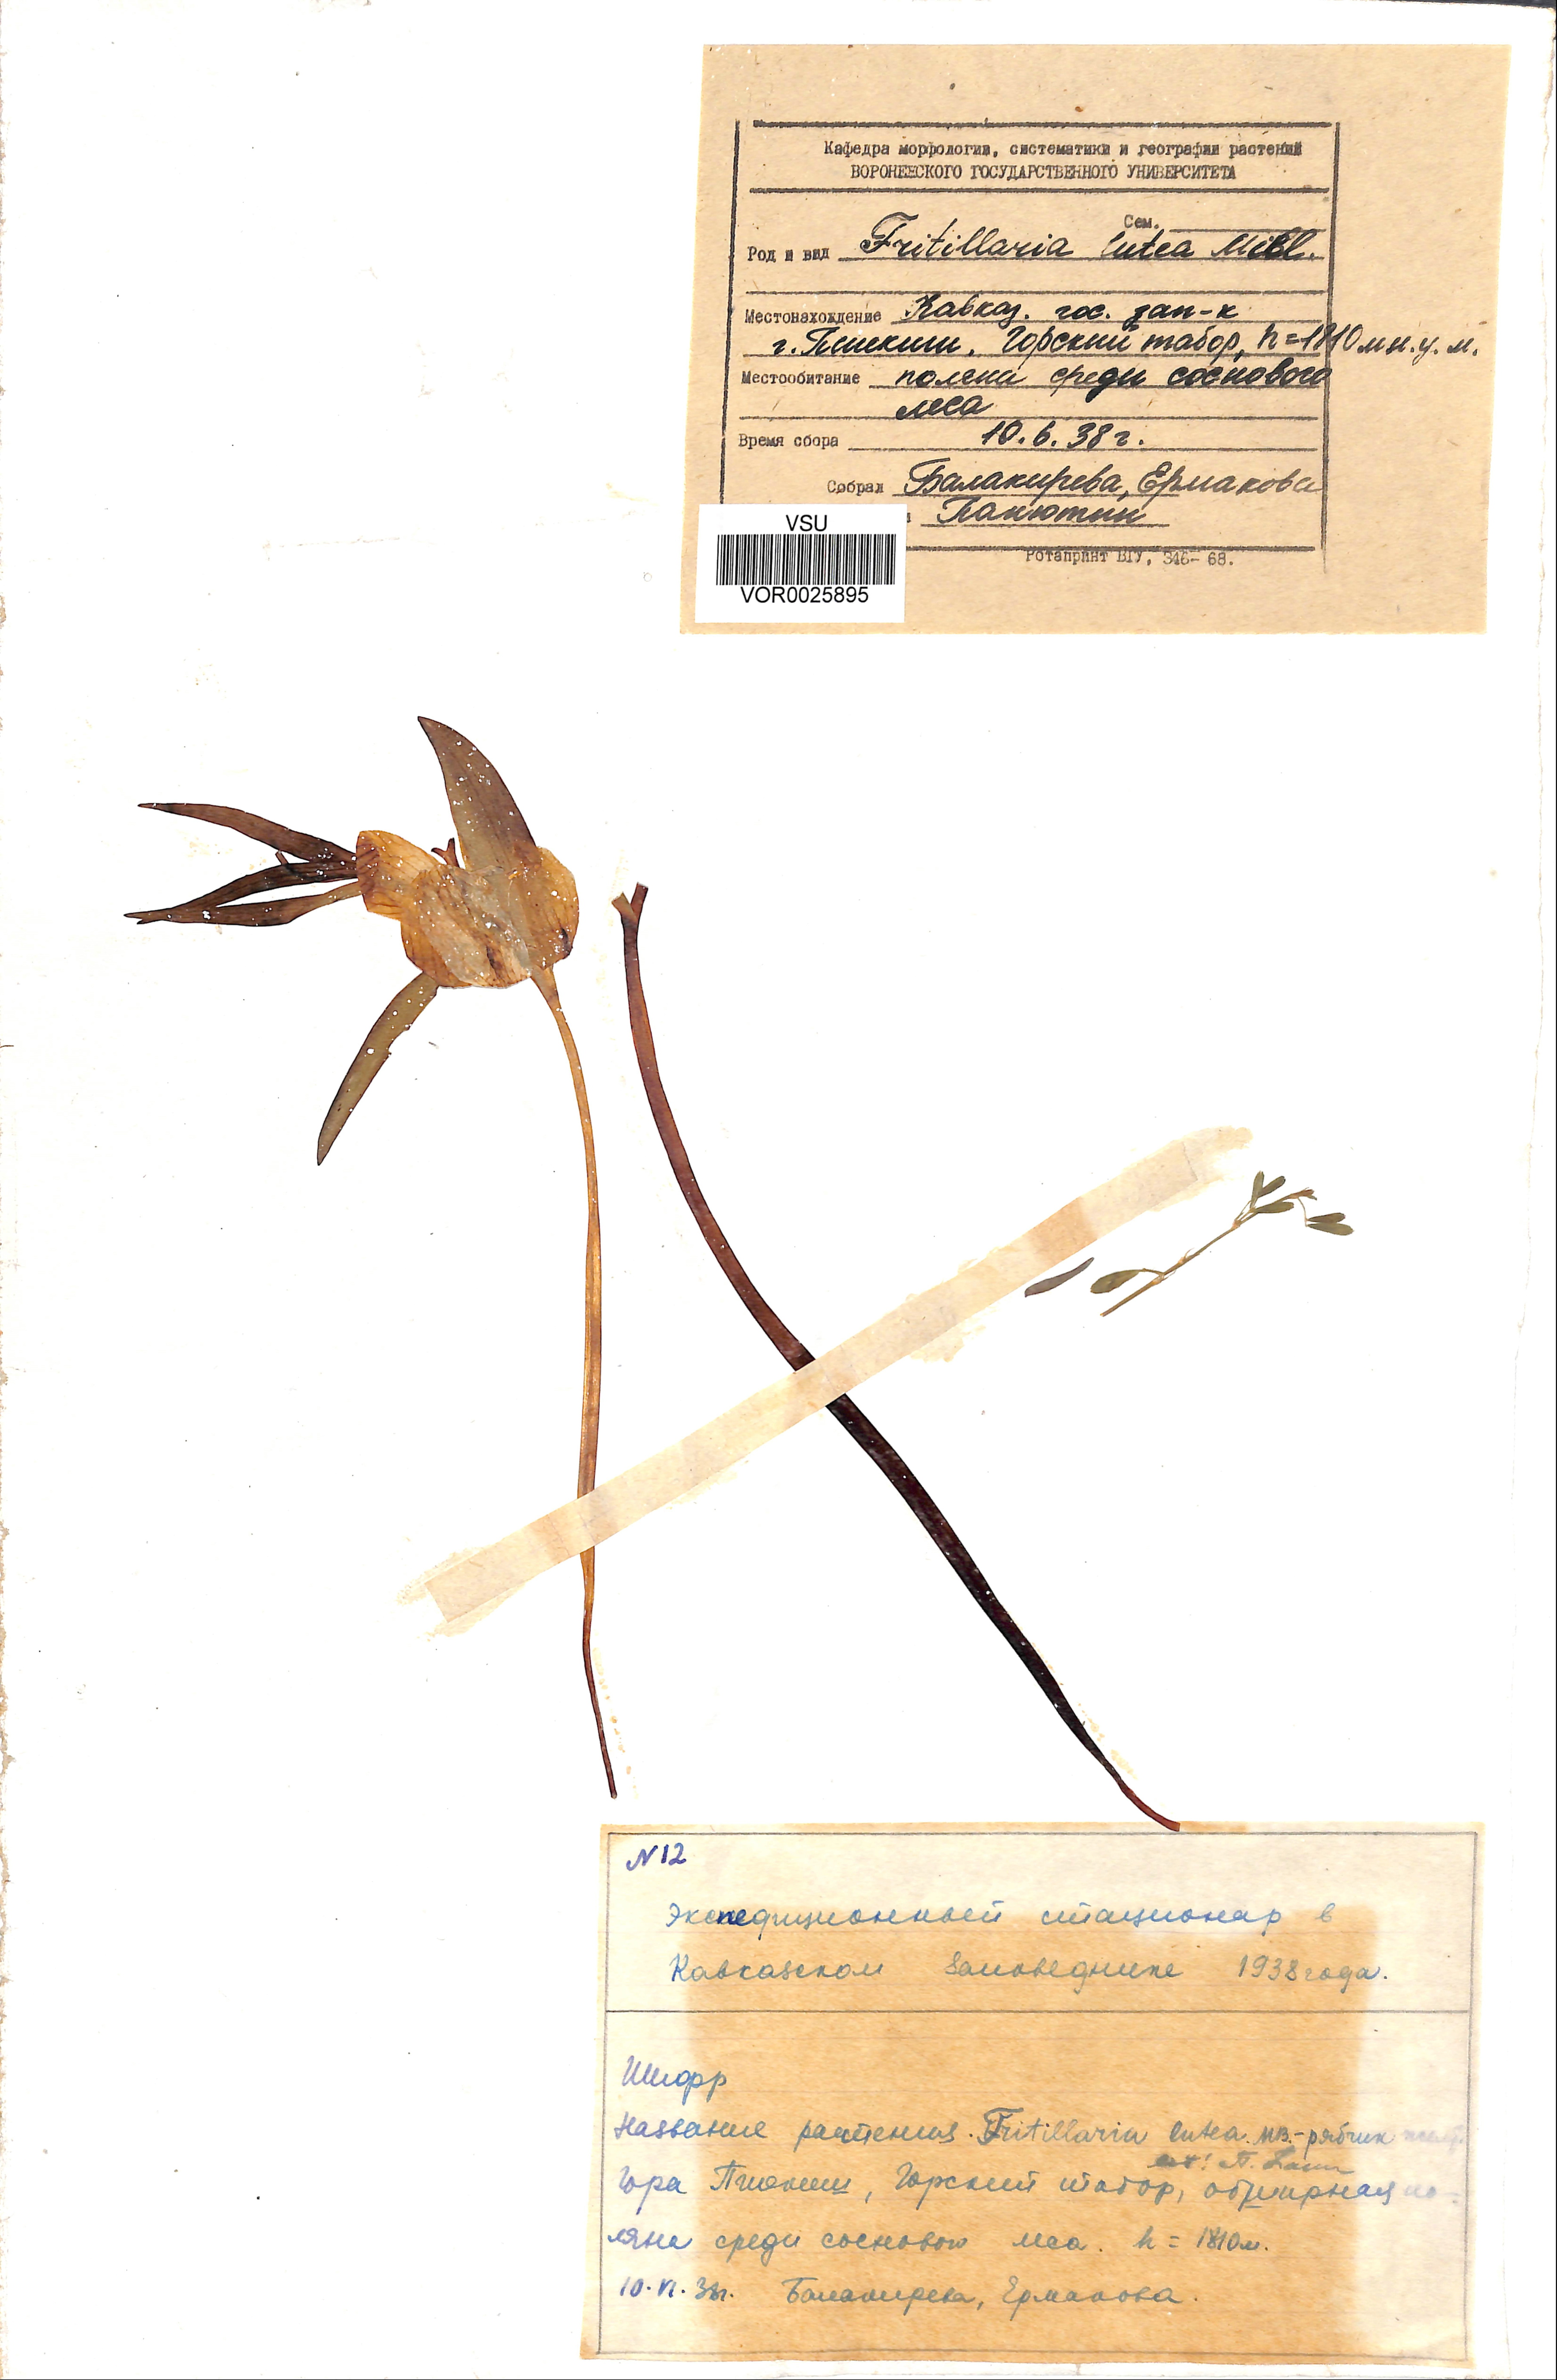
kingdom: Plantae
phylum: Tracheophyta
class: Liliopsida
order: Liliales
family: Liliaceae
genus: Fritillaria
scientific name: Fritillaria collina
